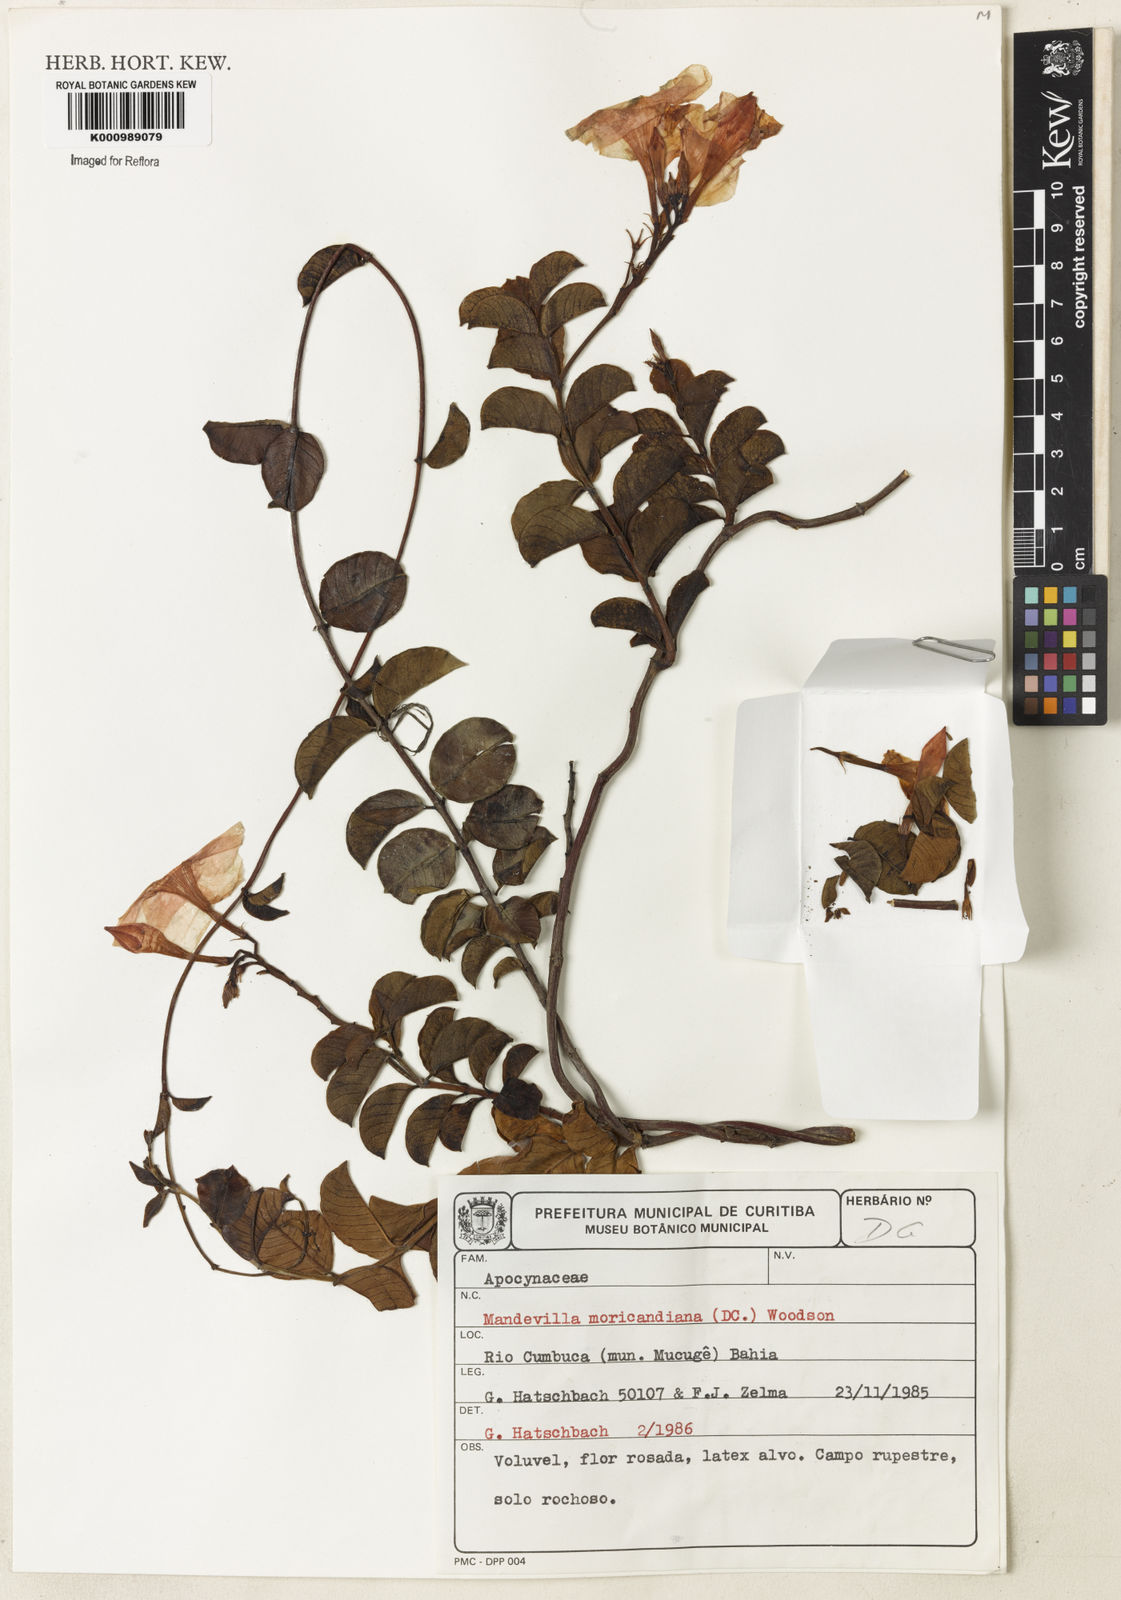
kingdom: Plantae
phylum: Tracheophyta
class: Magnoliopsida
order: Gentianales
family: Apocynaceae
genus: Mandevilla
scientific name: Mandevilla bahiensis
